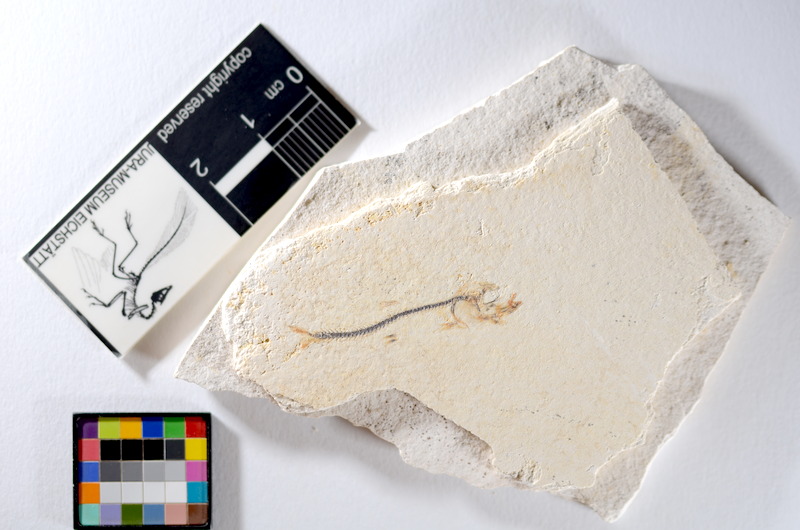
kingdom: Animalia
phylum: Chordata
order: Salmoniformes
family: Orthogonikleithridae
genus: Orthogonikleithrus
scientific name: Orthogonikleithrus hoelli
